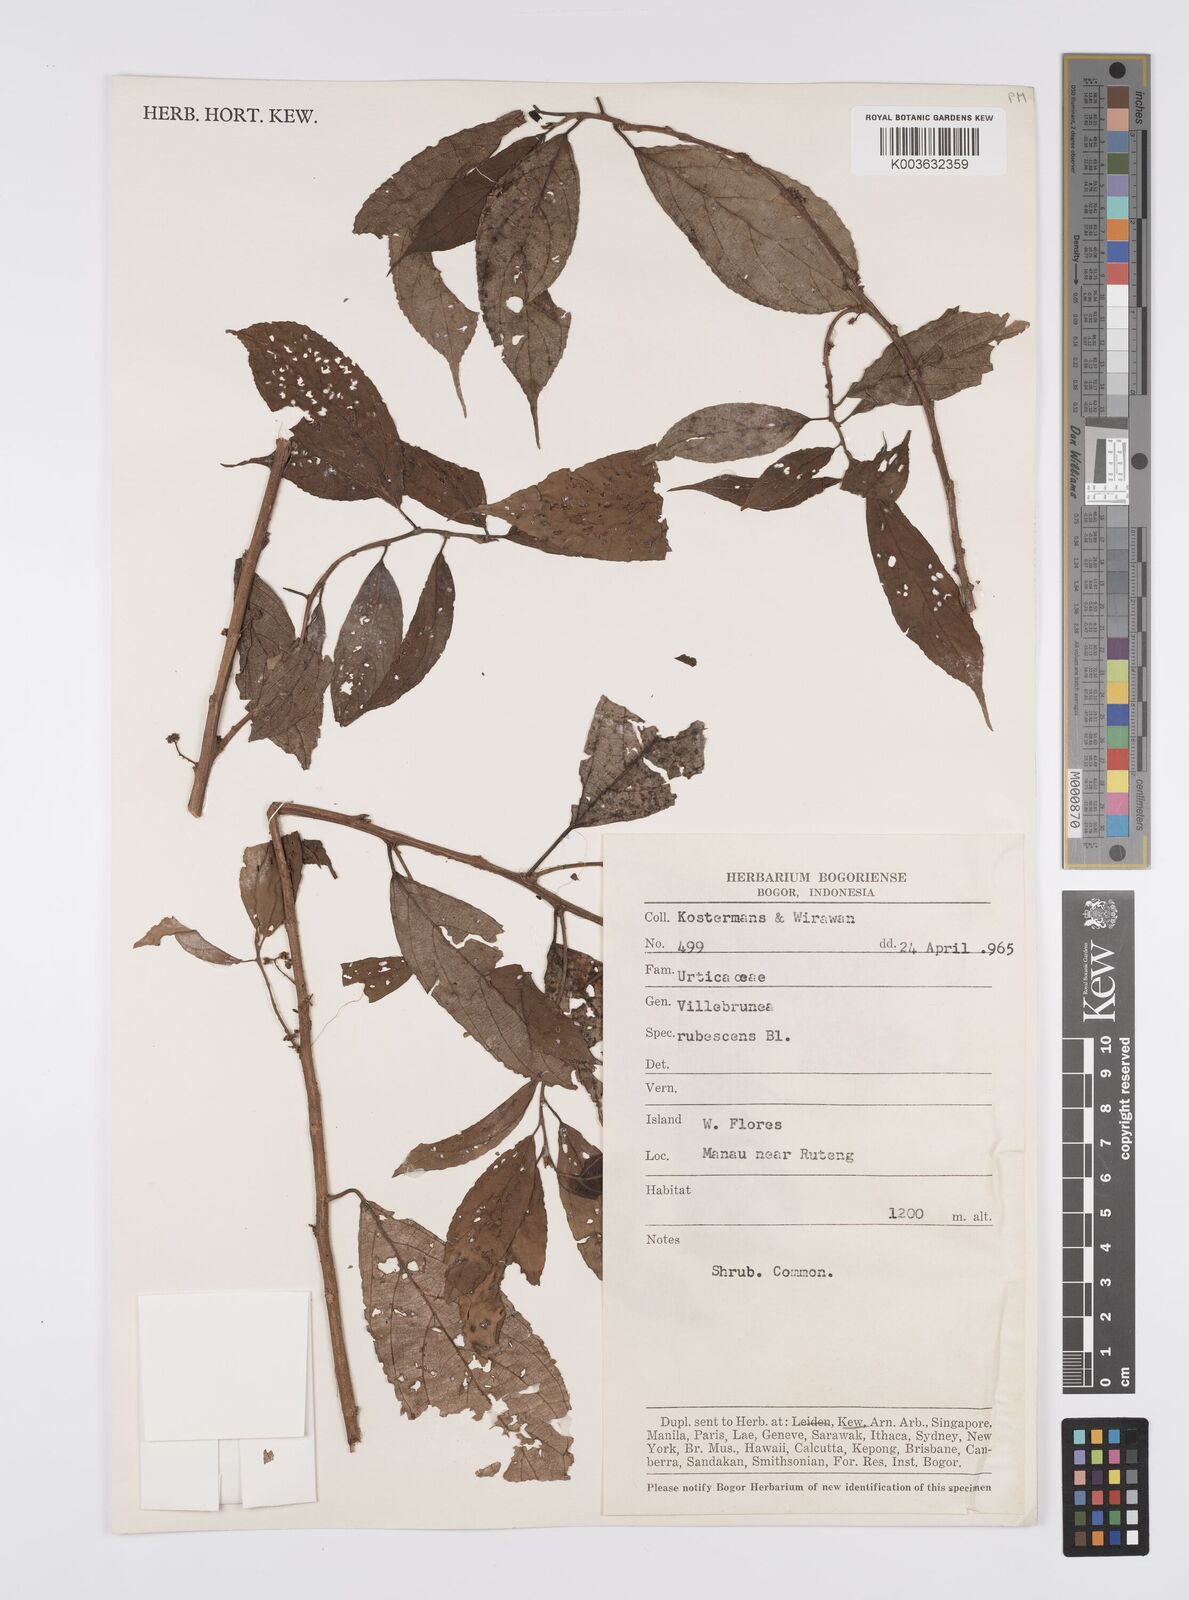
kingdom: Plantae
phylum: Tracheophyta
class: Magnoliopsida
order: Rosales
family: Urticaceae
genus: Oreocnide
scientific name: Oreocnide rubescens
